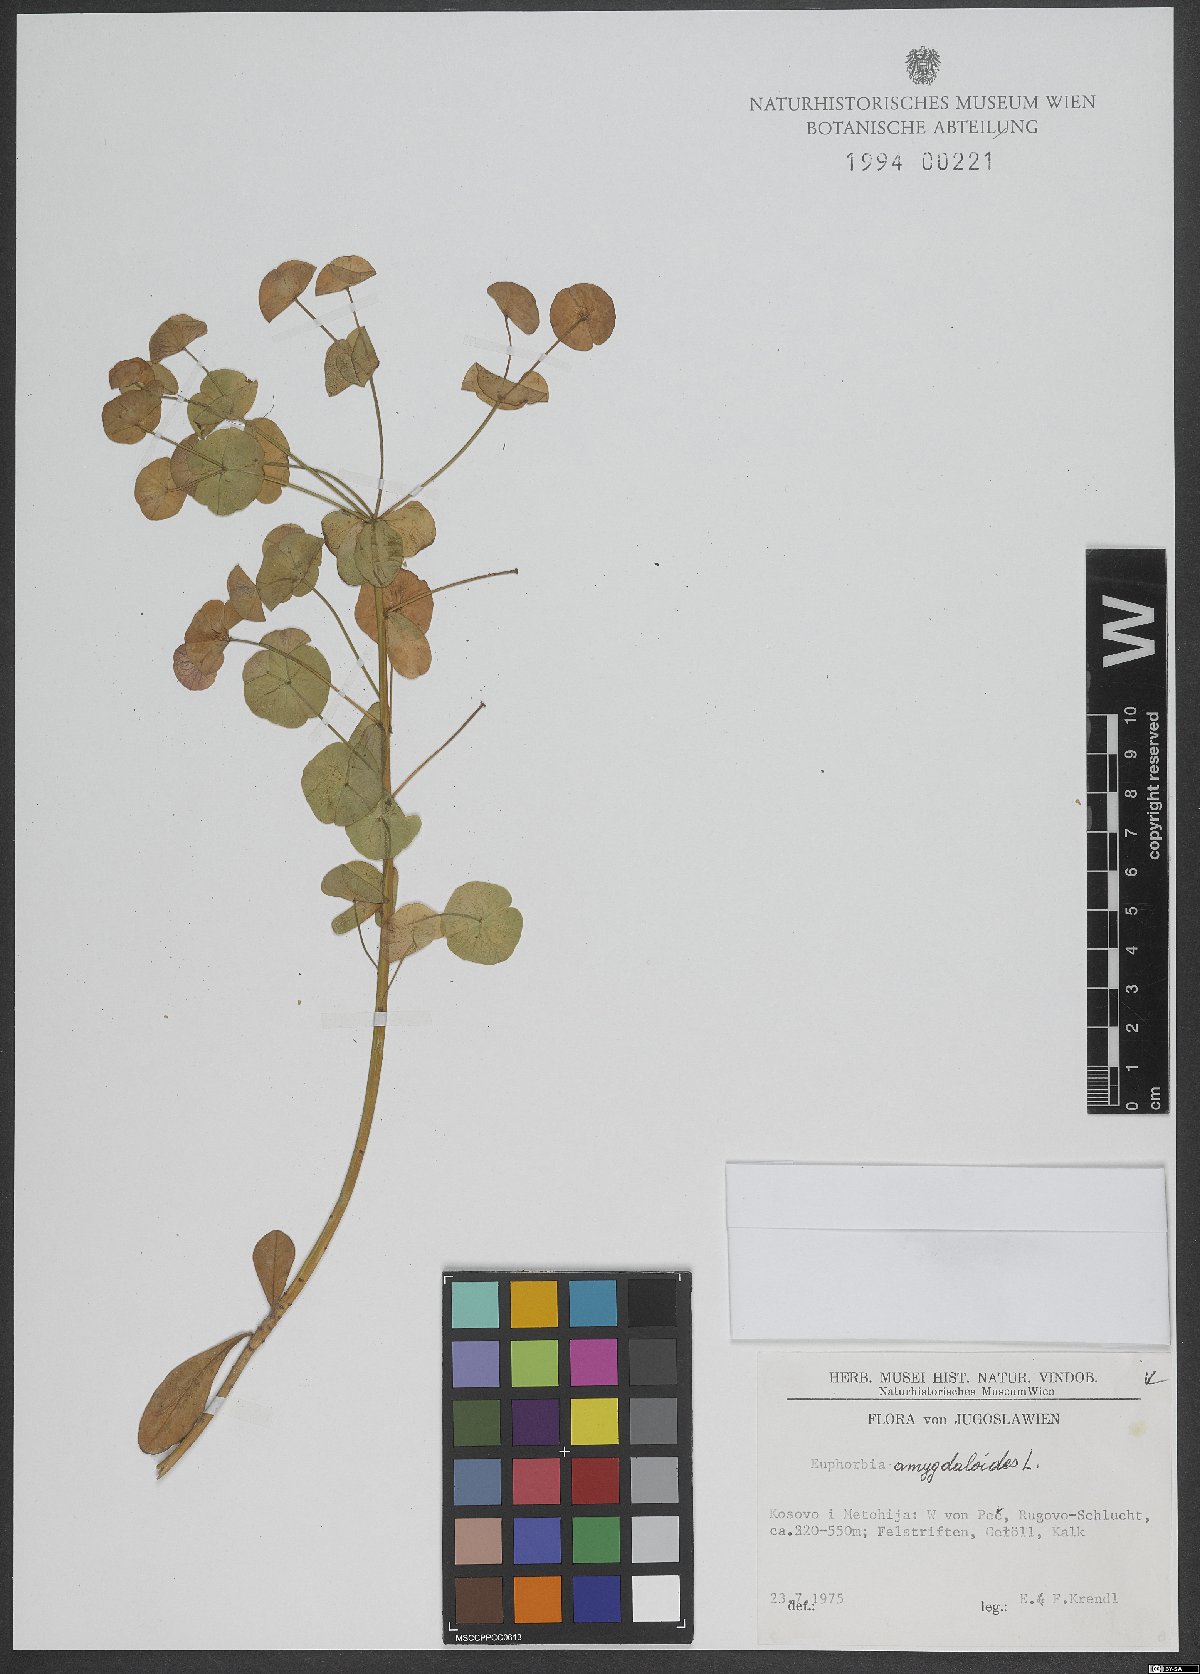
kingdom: Plantae
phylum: Tracheophyta
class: Magnoliopsida
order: Malpighiales
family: Euphorbiaceae
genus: Euphorbia
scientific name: Euphorbia amygdaloides
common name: Wood spurge
